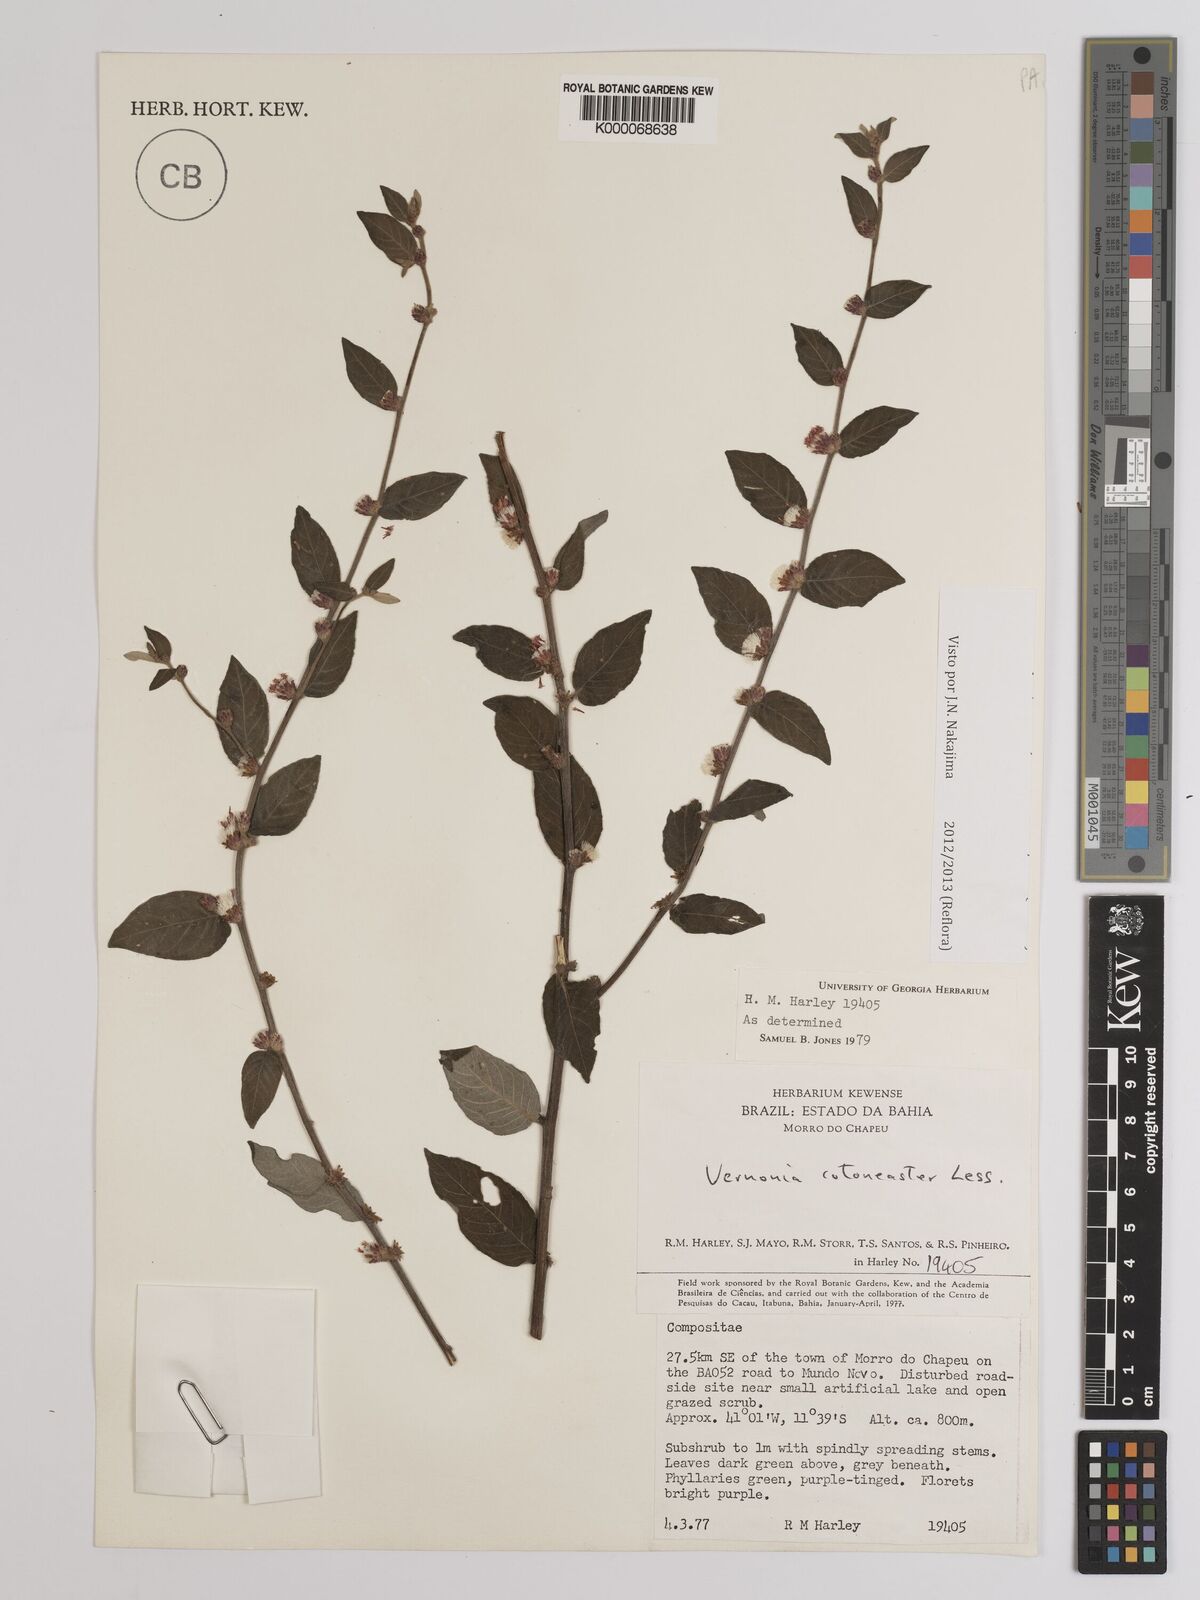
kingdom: Plantae
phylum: Tracheophyta
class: Magnoliopsida
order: Asterales
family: Asteraceae
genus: Lepidaploa
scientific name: Lepidaploa cotoneaster
